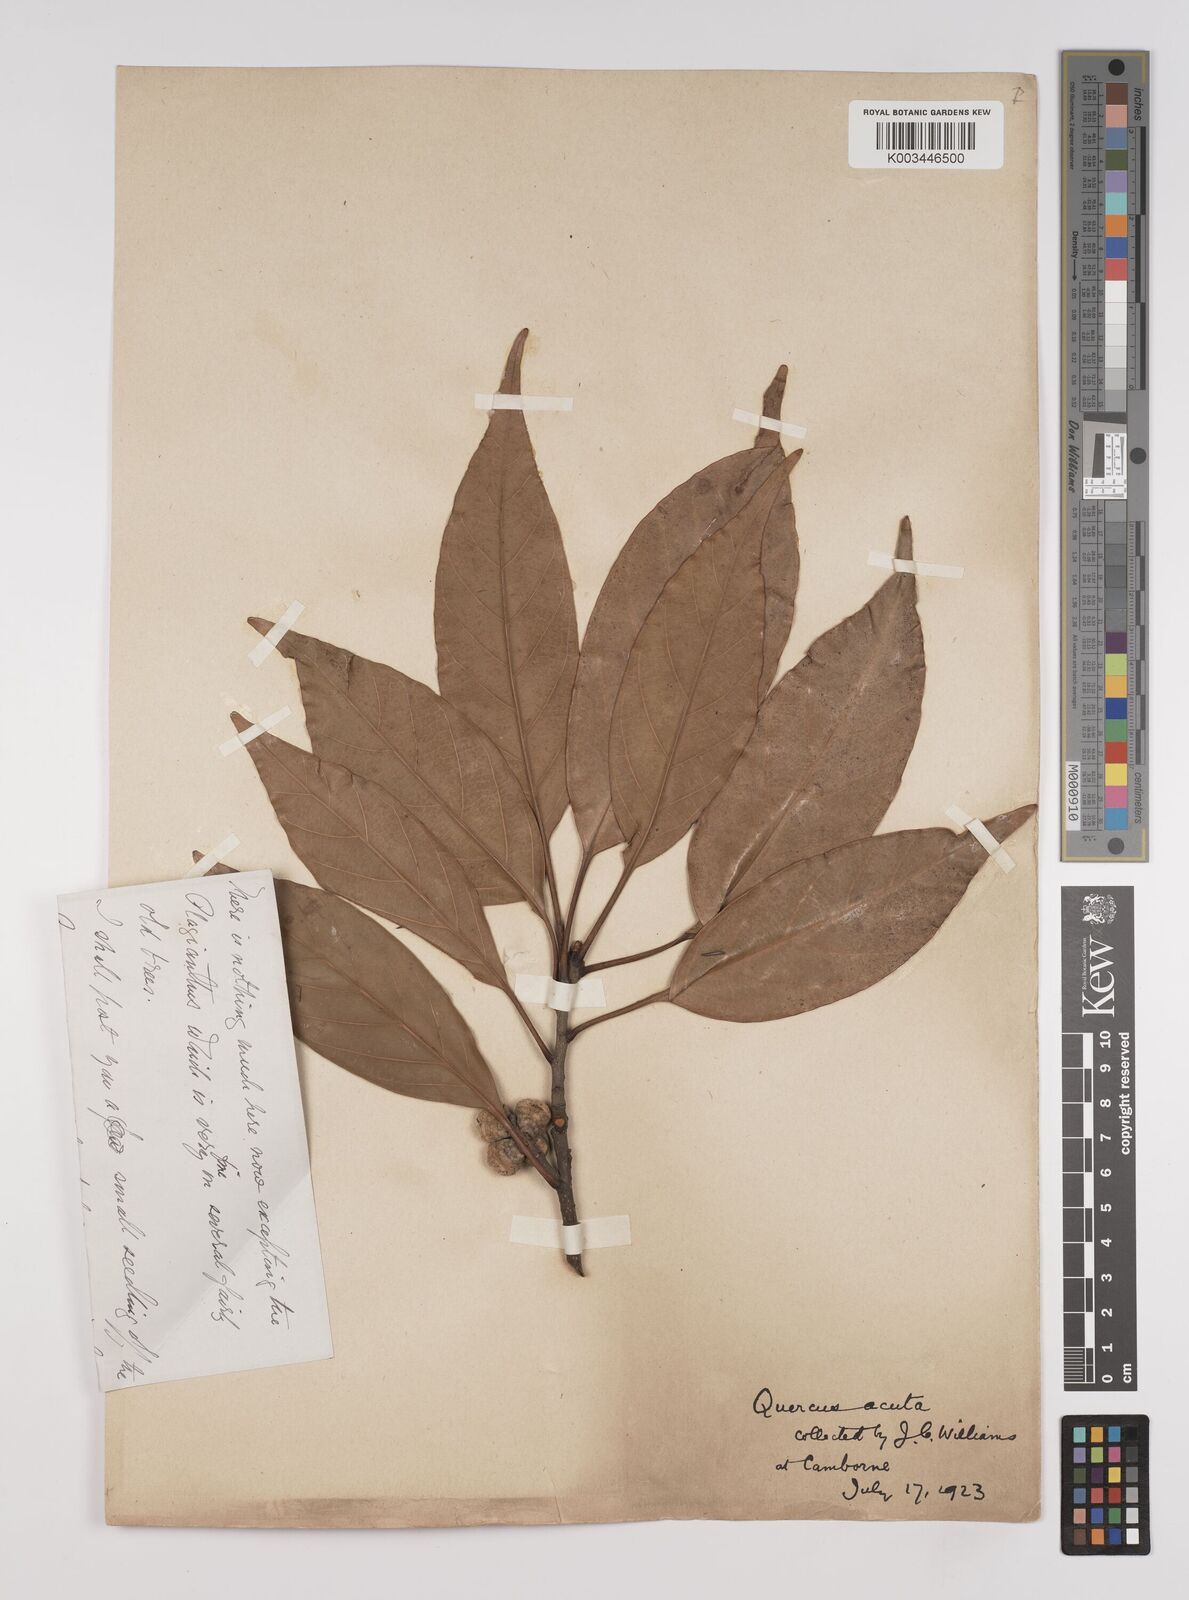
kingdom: Plantae
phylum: Tracheophyta
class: Magnoliopsida
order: Fagales
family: Fagaceae
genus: Quercus
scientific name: Quercus coccinea
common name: Scarlet oak
